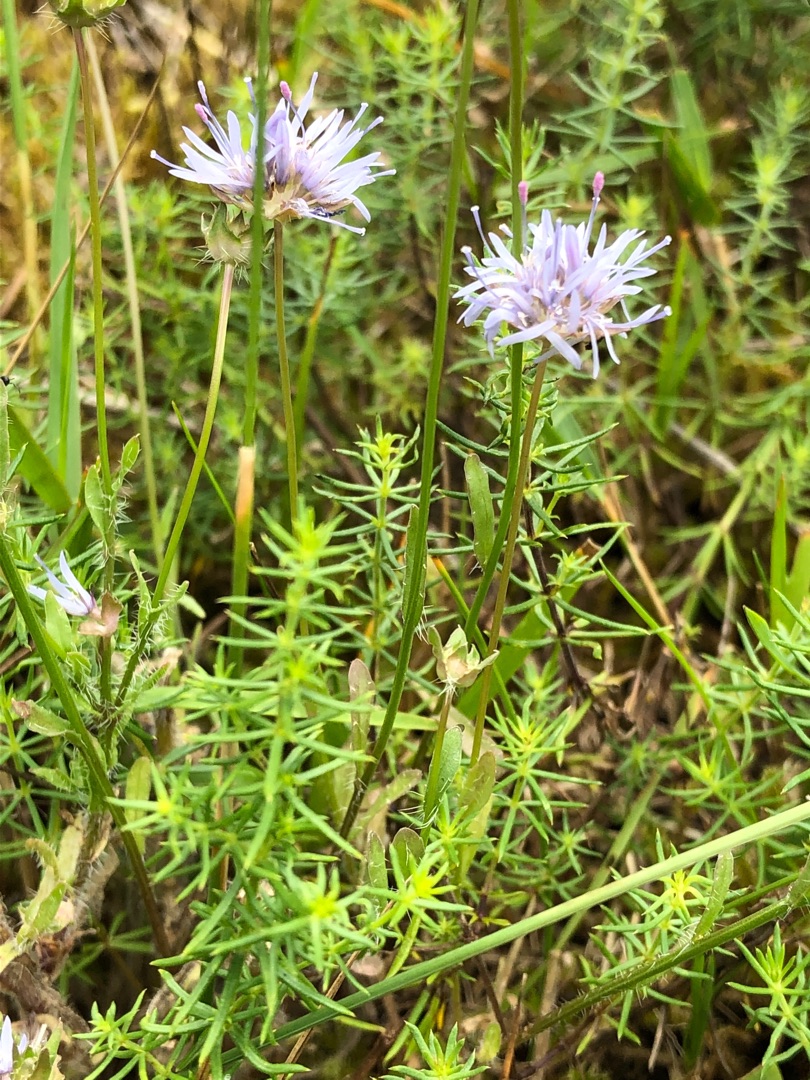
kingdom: Plantae
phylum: Tracheophyta
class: Magnoliopsida
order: Asterales
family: Campanulaceae
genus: Jasione
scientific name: Jasione montana
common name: Blåmunke
